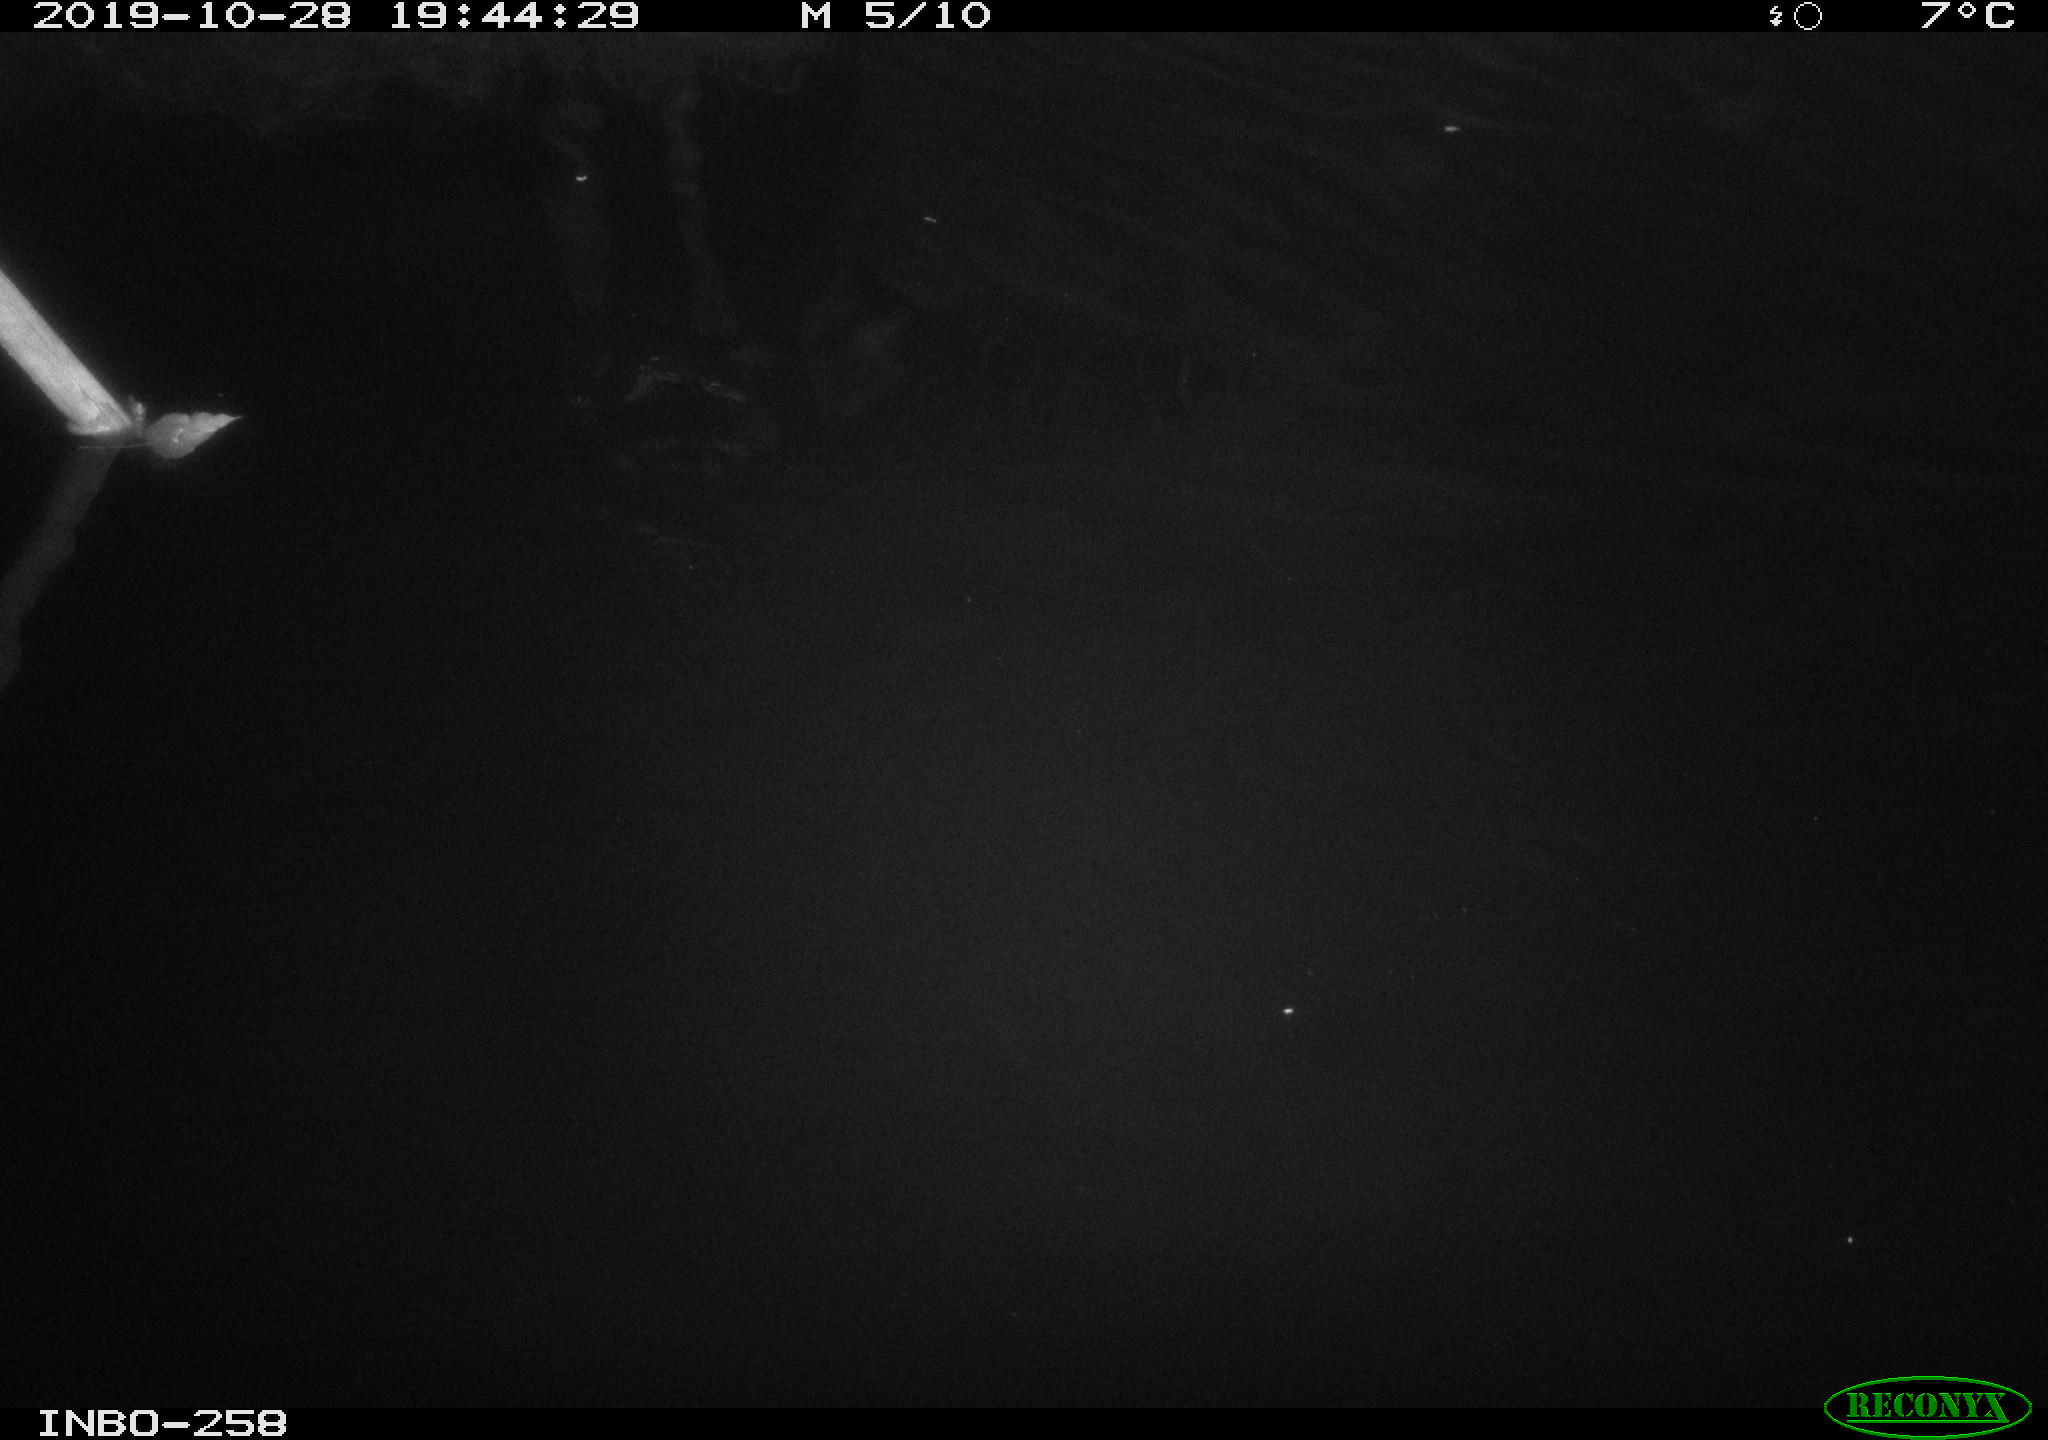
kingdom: Animalia
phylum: Chordata
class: Aves
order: Anseriformes
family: Anatidae
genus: Anas
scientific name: Anas platyrhynchos
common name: Mallard
